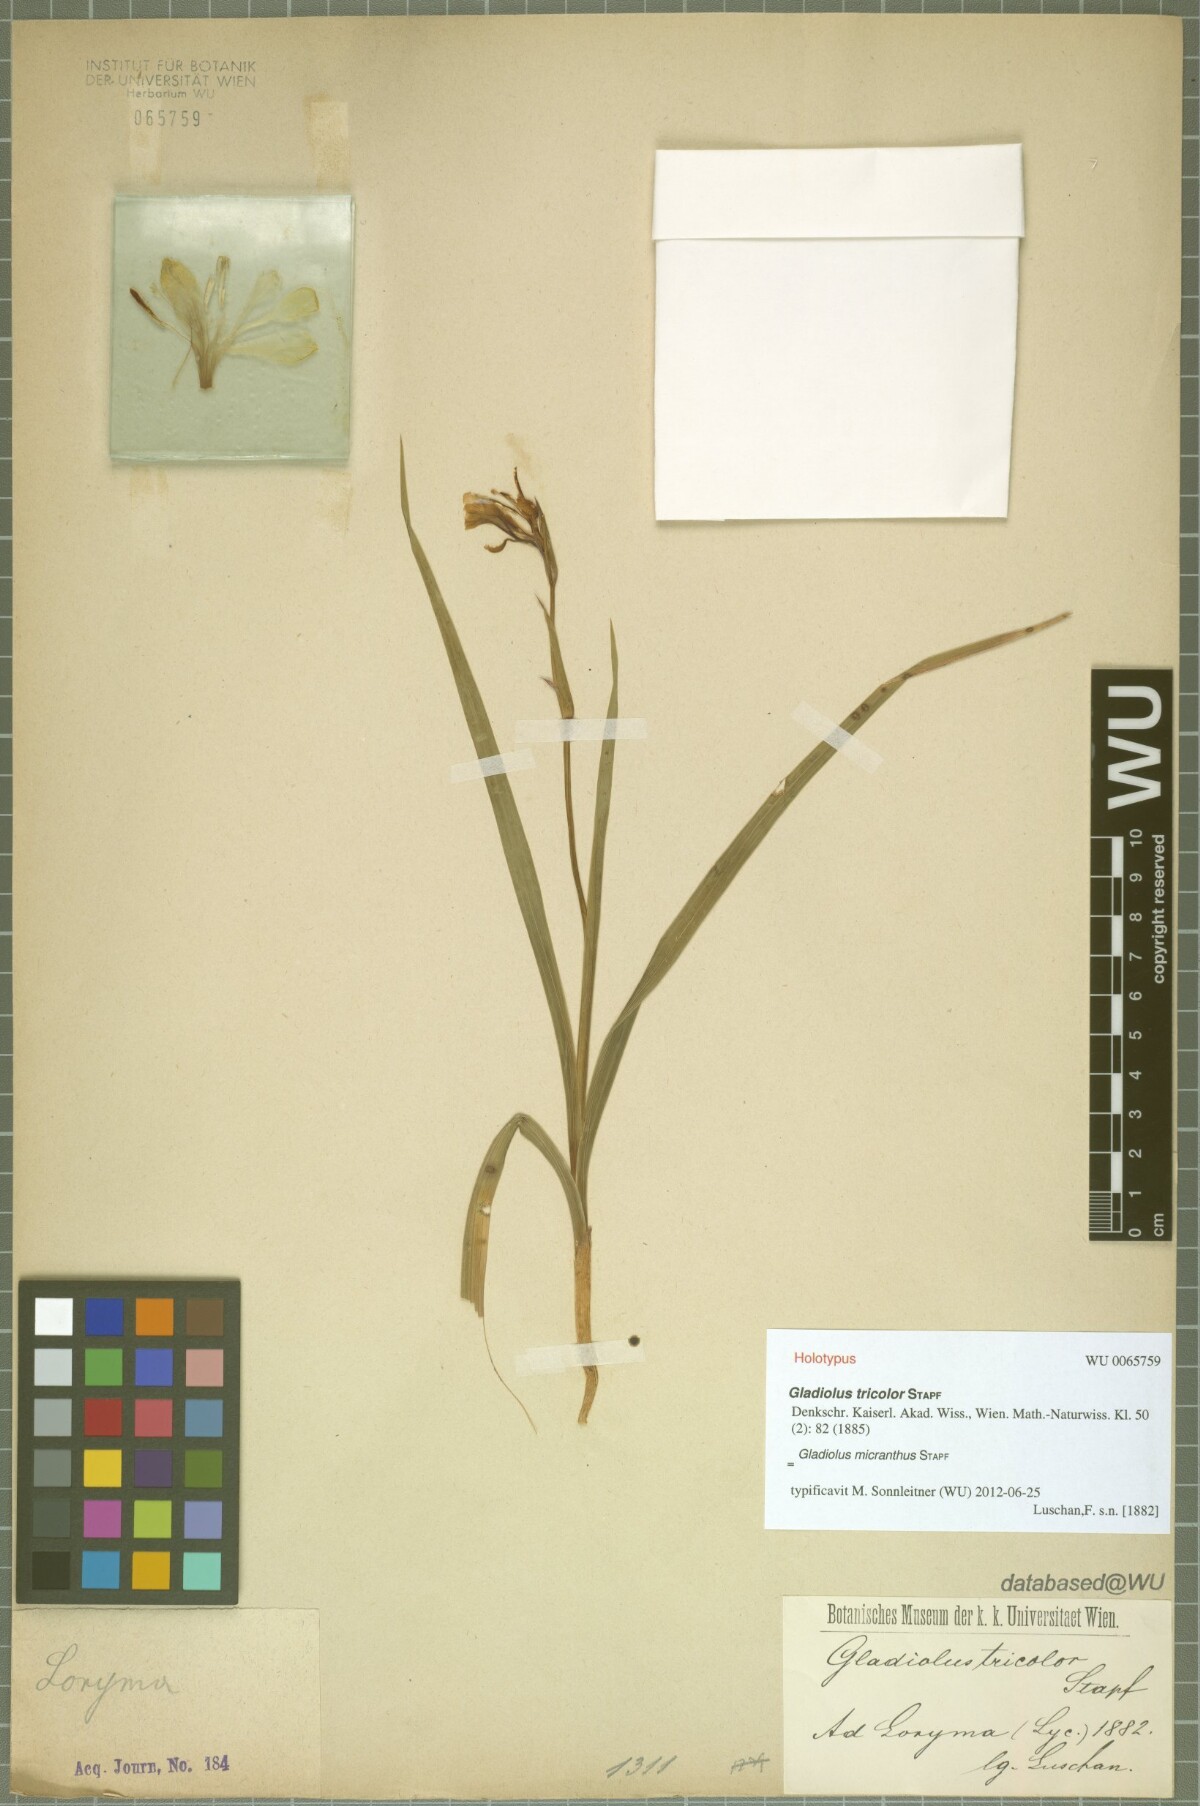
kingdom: Plantae
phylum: Tracheophyta
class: Liliopsida
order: Asparagales
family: Iridaceae
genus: Gladiolus
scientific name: Gladiolus micranthus
